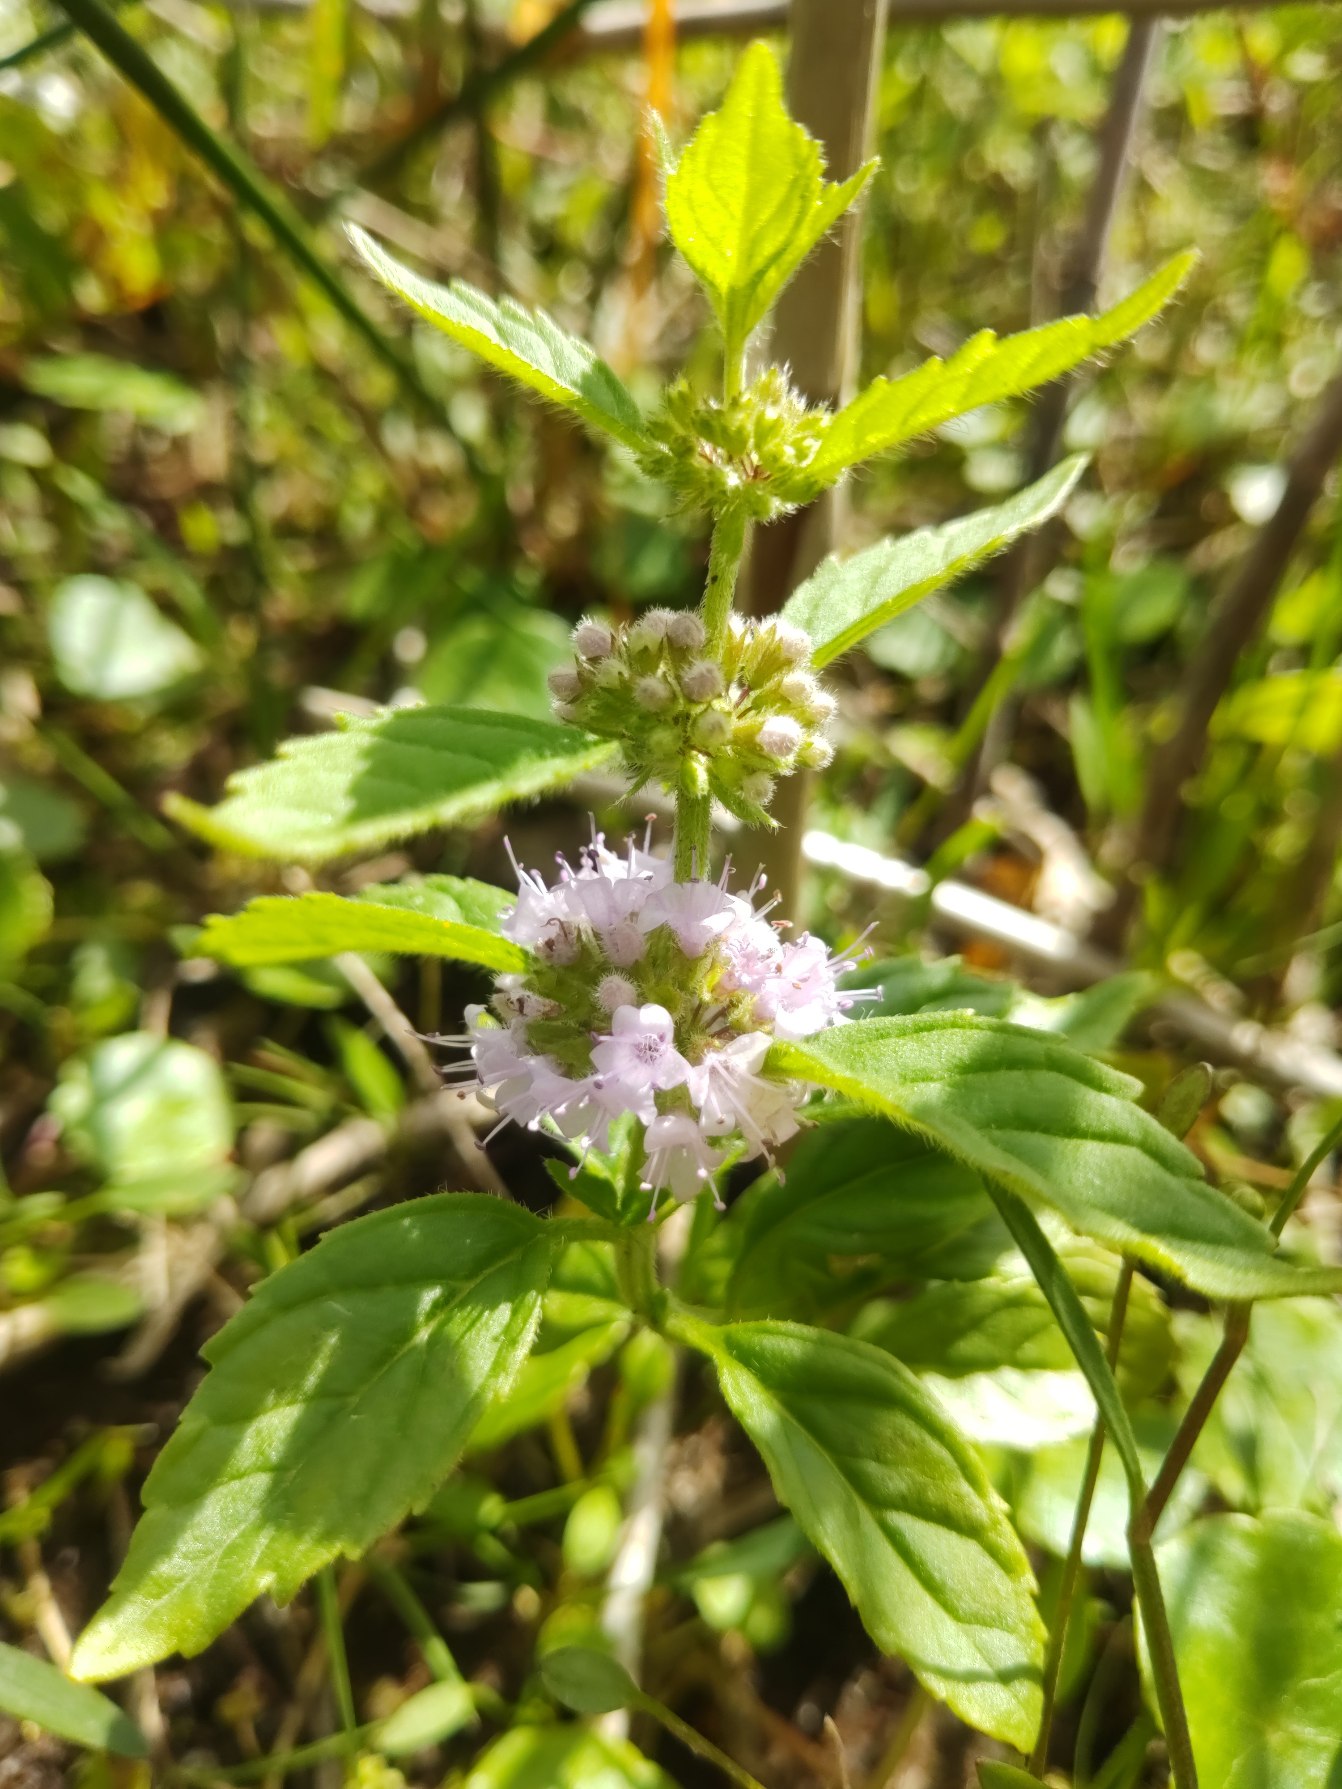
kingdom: Plantae
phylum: Tracheophyta
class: Magnoliopsida
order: Lamiales
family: Lamiaceae
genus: Mentha
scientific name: Mentha arvensis
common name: Ager-mynte
